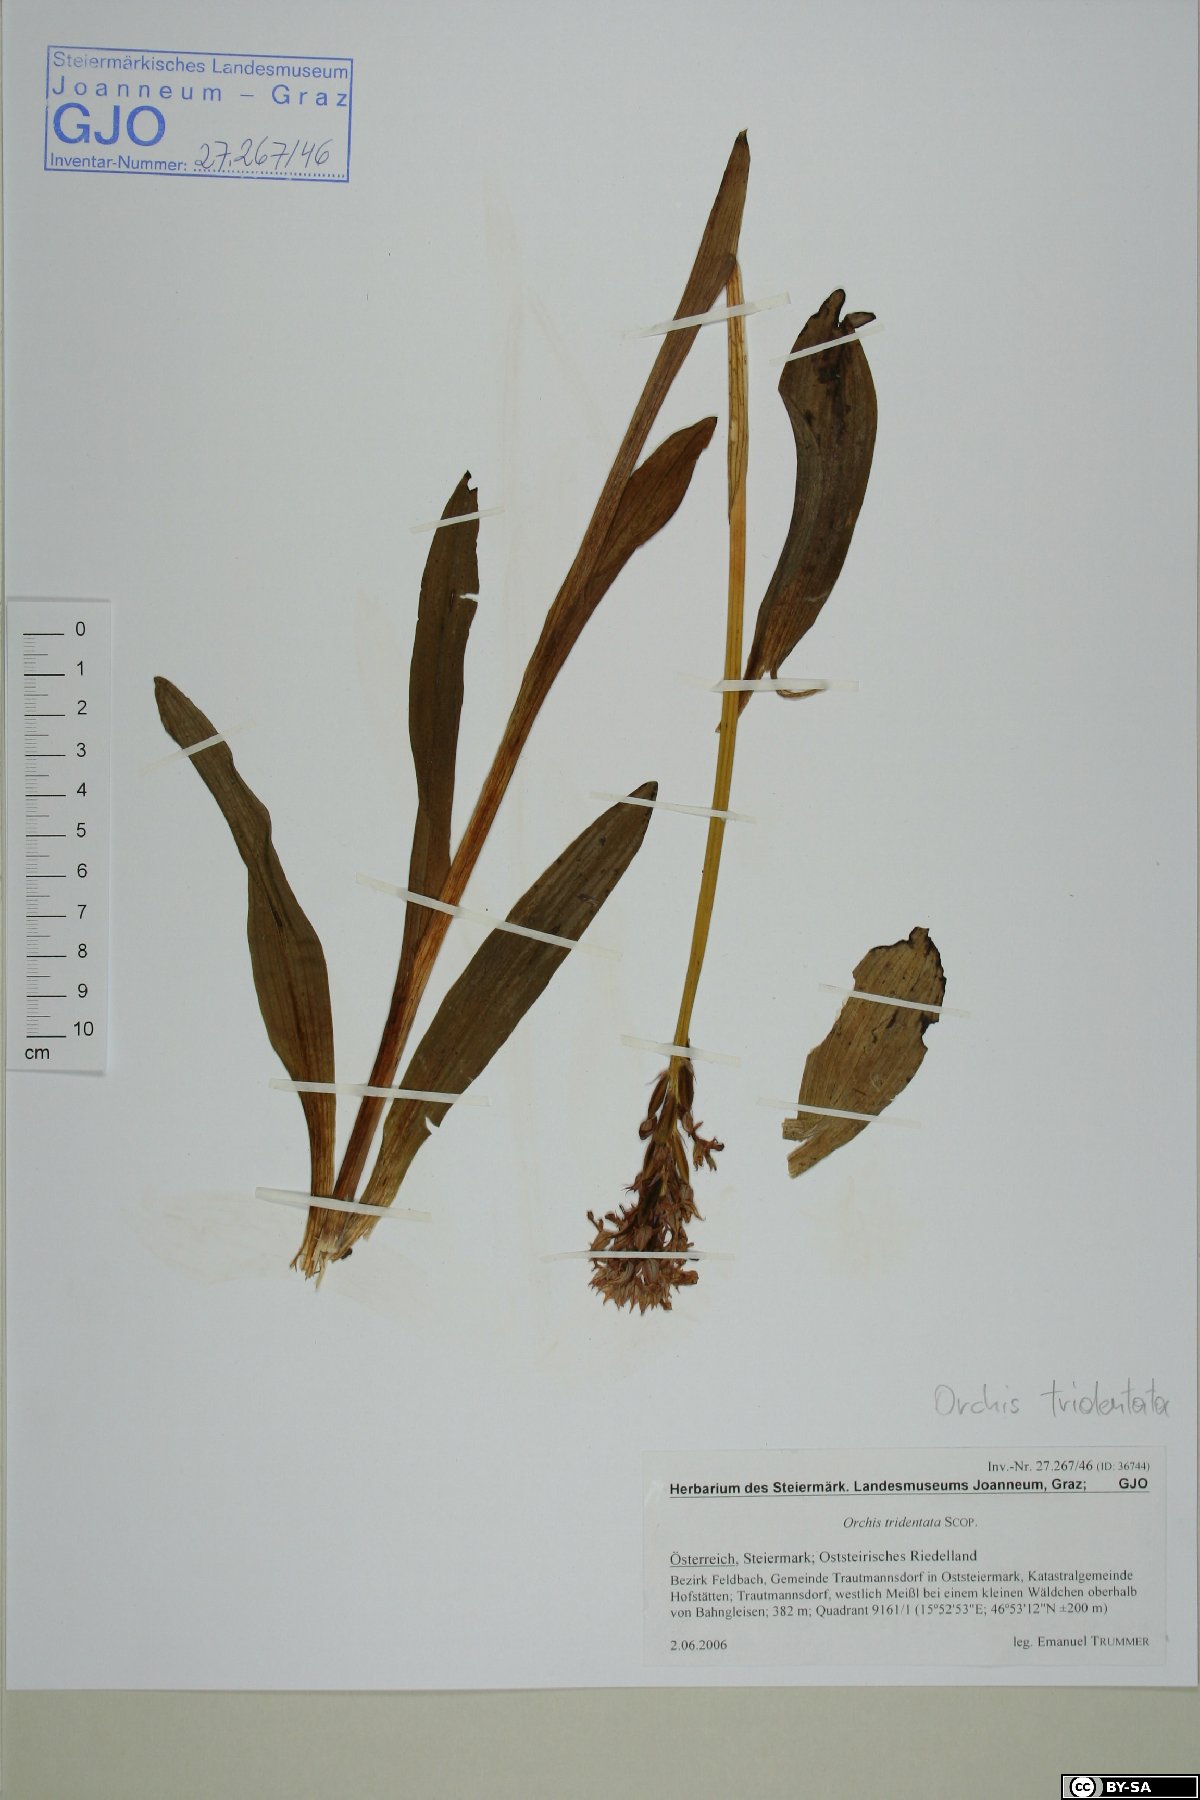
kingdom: Plantae
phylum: Tracheophyta
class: Liliopsida
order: Asparagales
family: Orchidaceae
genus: Neotinea
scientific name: Neotinea tridentata
